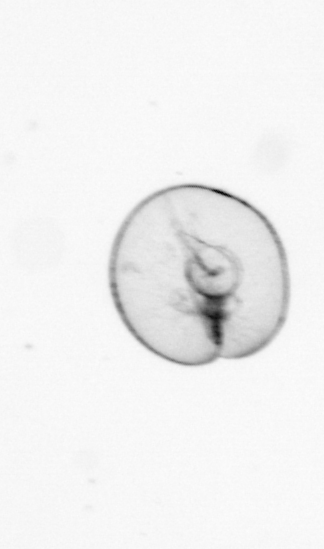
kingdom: Chromista
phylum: Myzozoa
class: Dinophyceae
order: Noctilucales
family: Noctilucaceae
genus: Noctiluca
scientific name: Noctiluca scintillans
